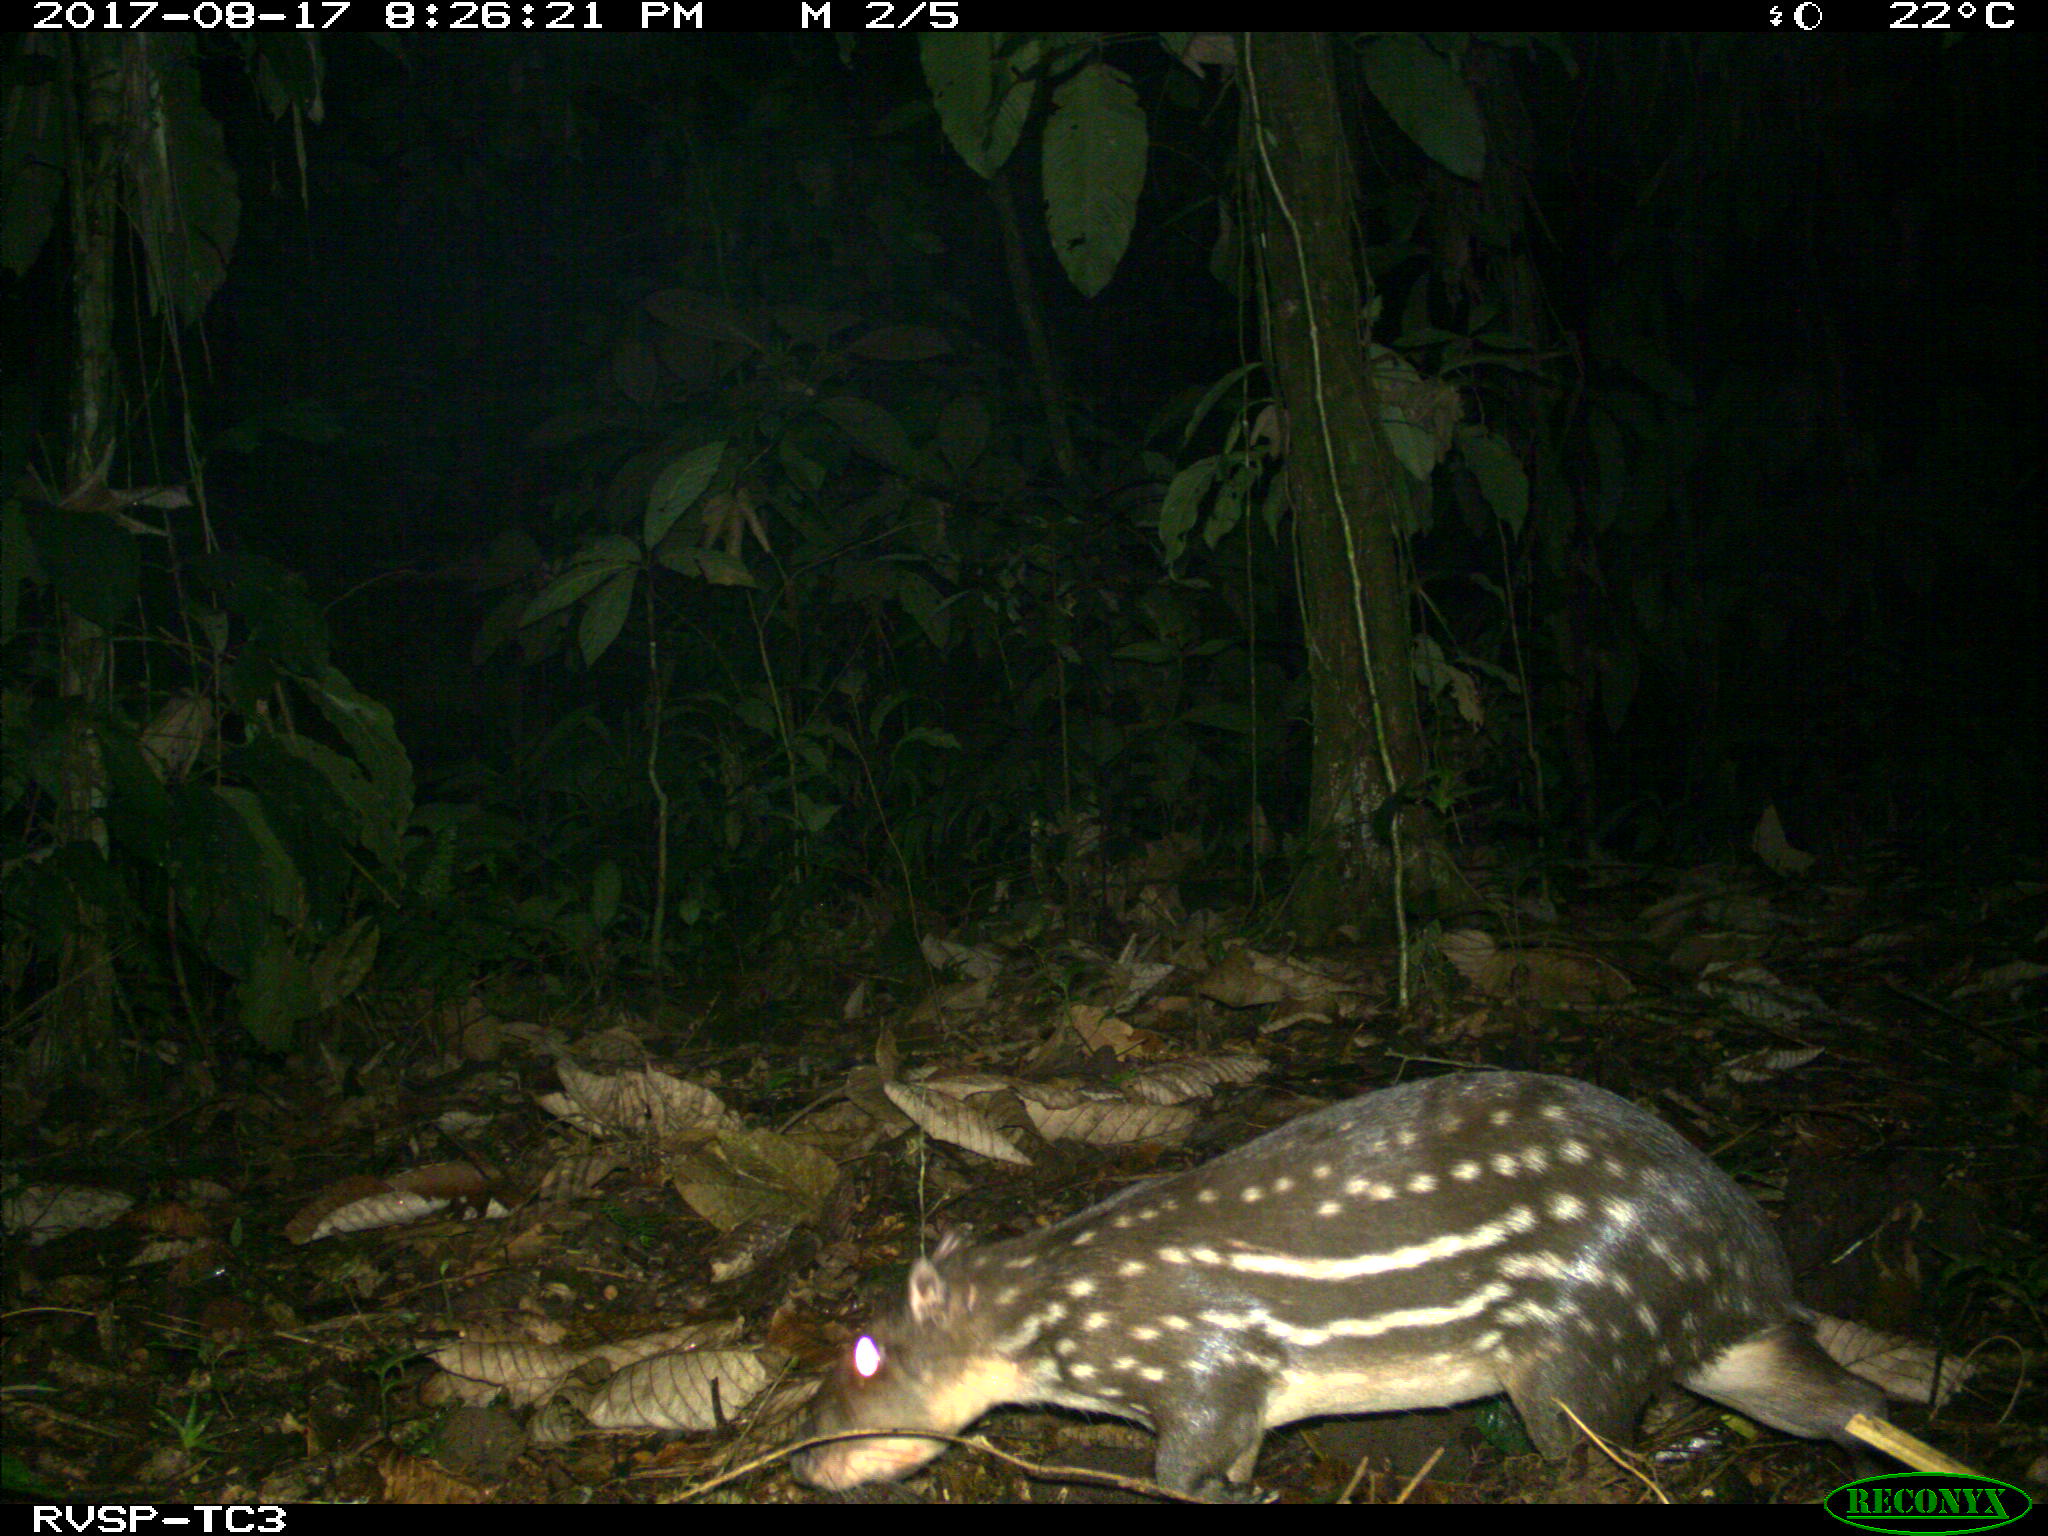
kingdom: Animalia
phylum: Chordata
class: Mammalia
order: Rodentia
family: Cuniculidae
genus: Cuniculus
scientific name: Cuniculus paca
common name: Lowland paca
